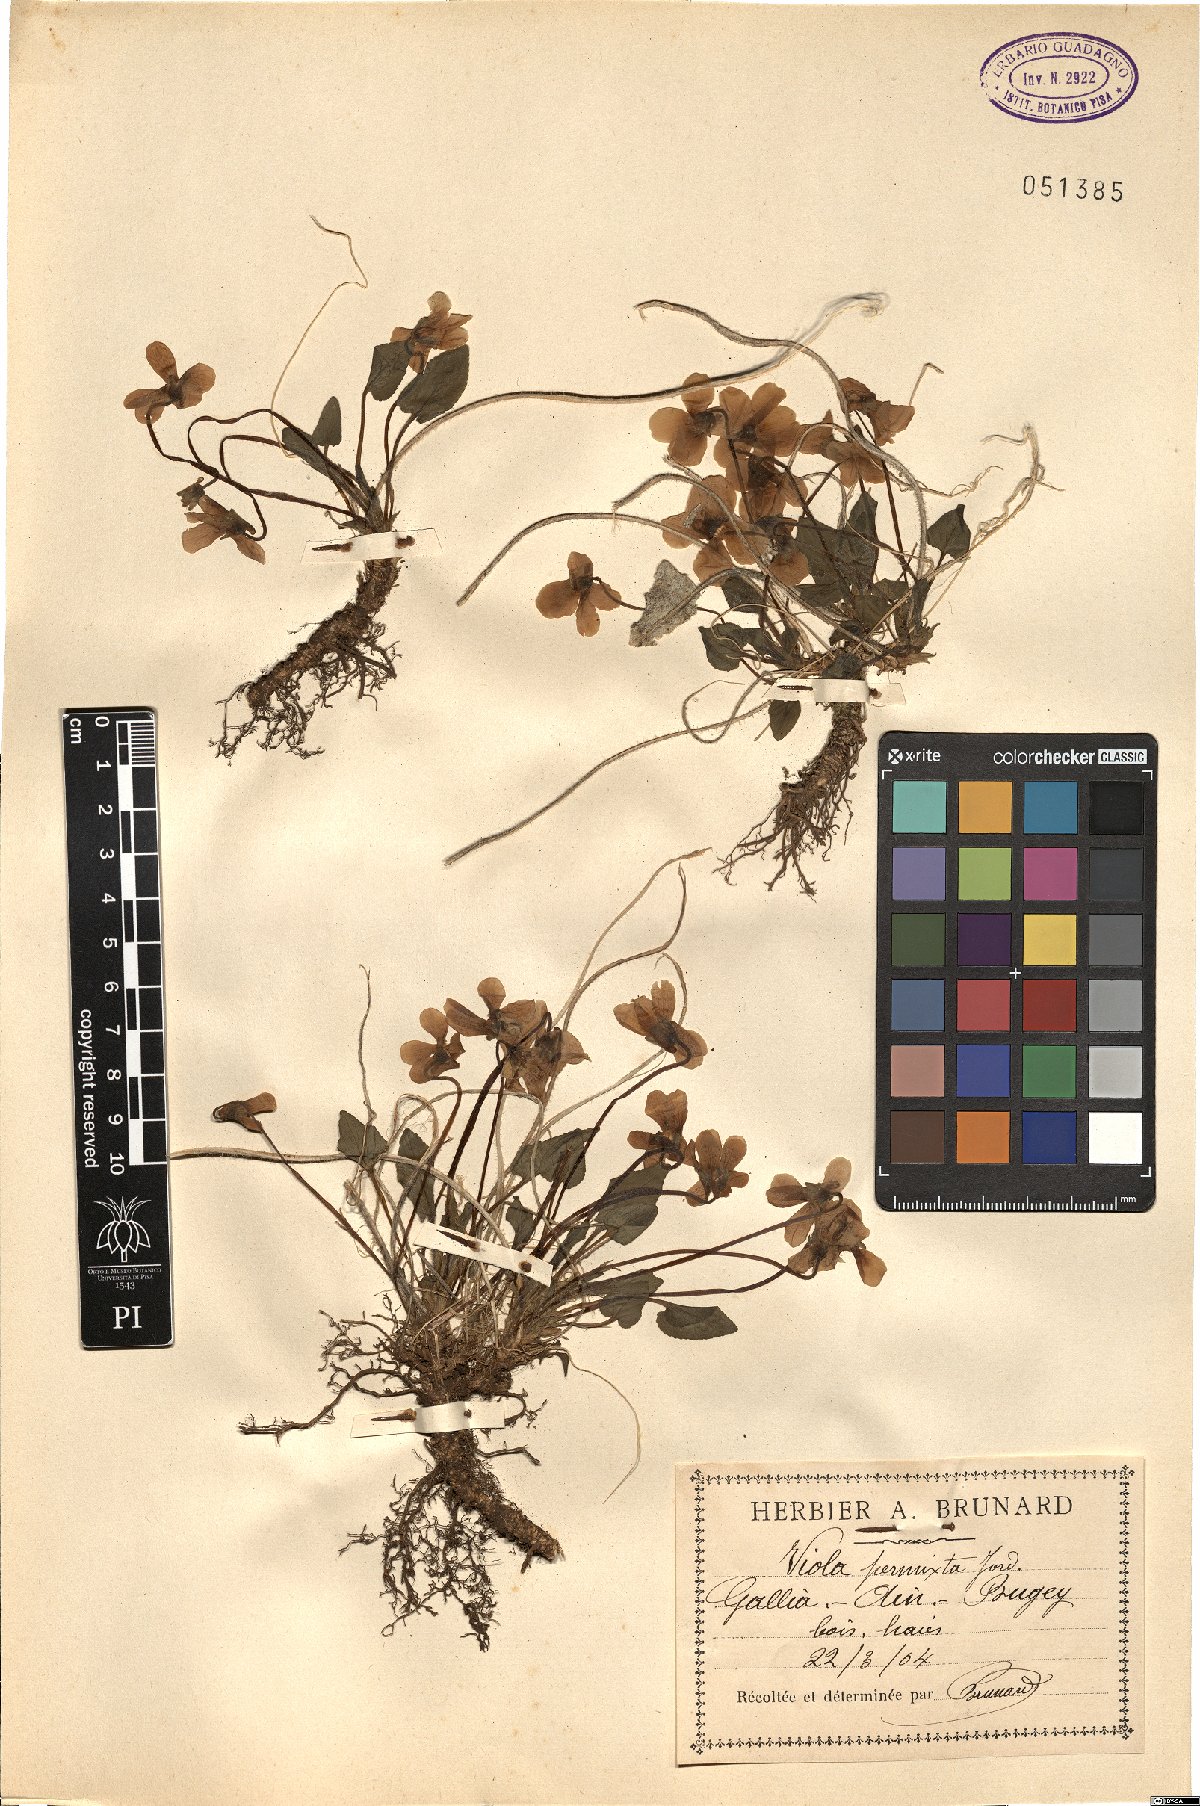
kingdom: Plantae
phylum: Tracheophyta
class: Magnoliopsida
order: Malpighiales
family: Violaceae
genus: Viola
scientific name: Viola scabra
